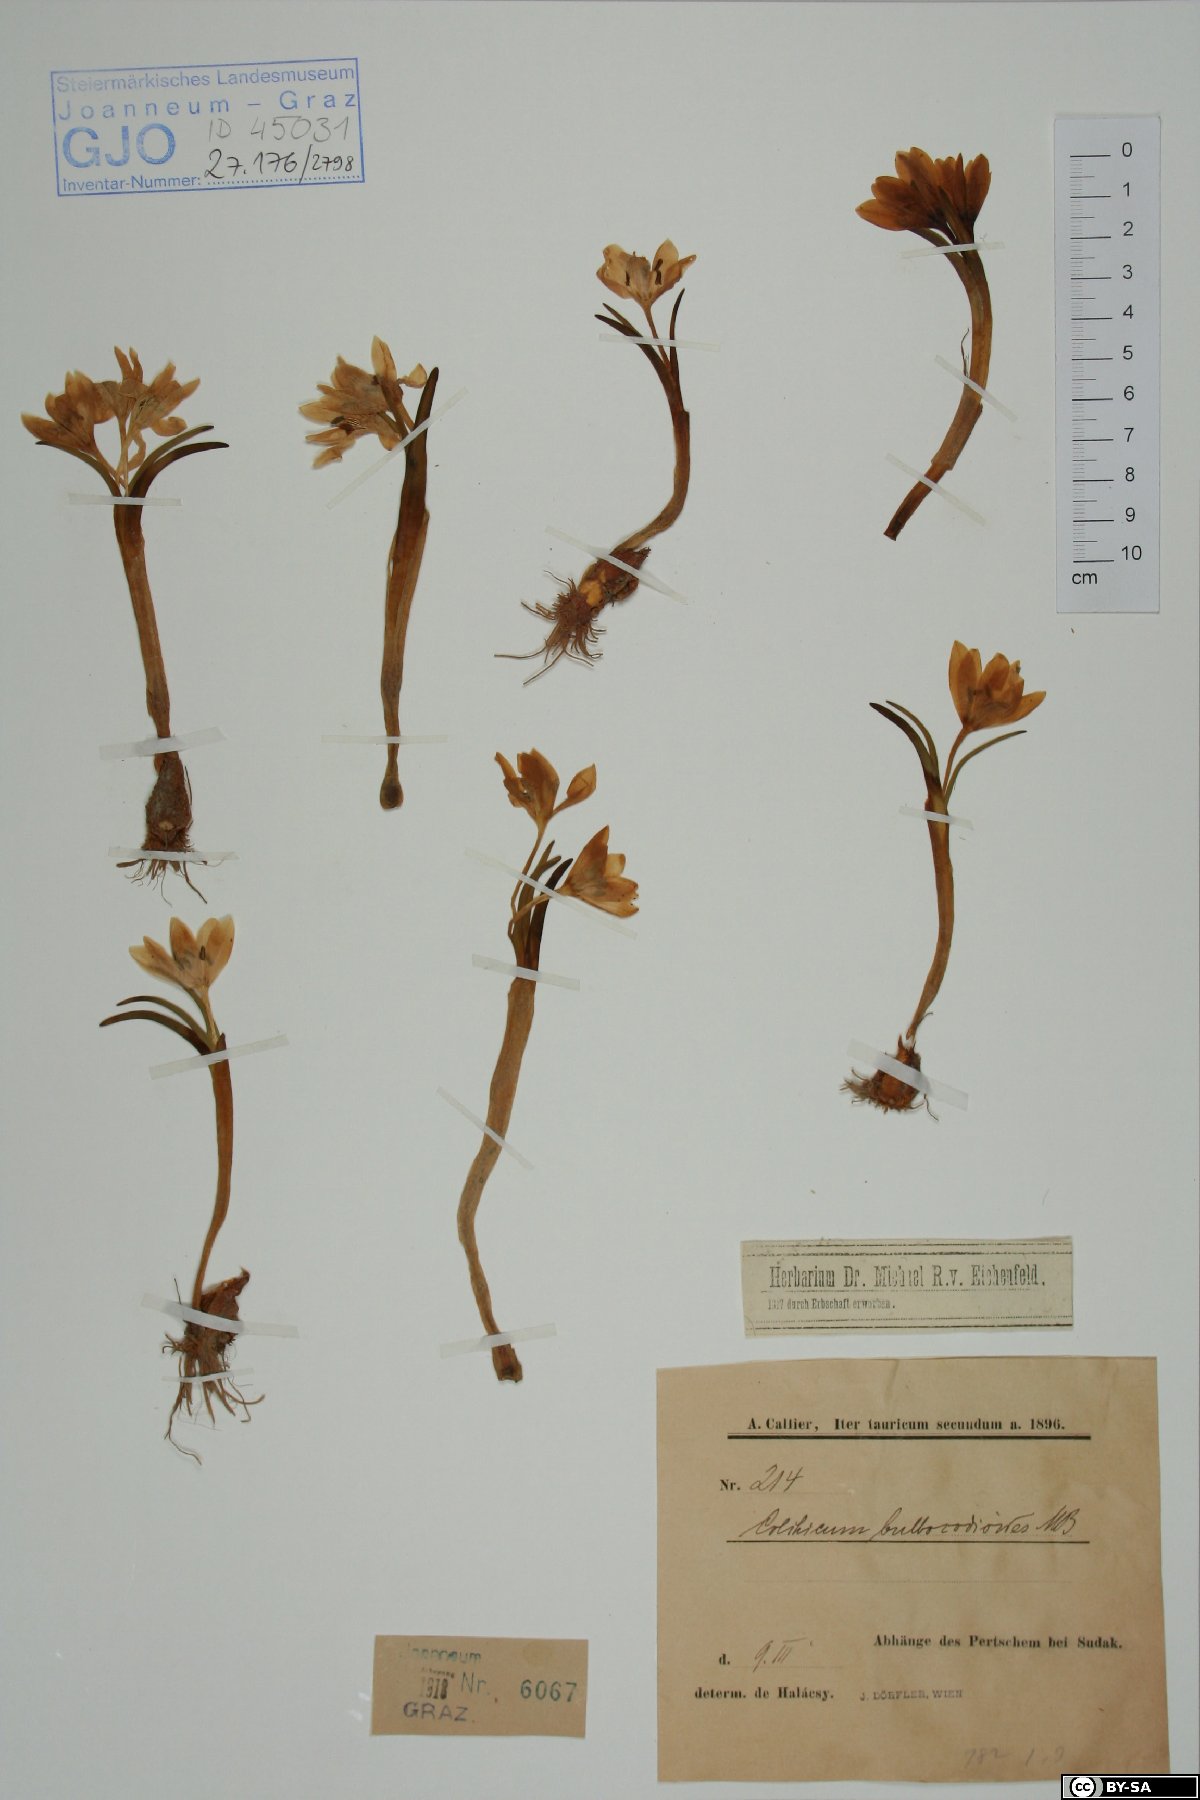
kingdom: Plantae
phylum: Tracheophyta
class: Liliopsida
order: Liliales
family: Colchicaceae
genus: Colchicum
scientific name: Colchicum triphyllum
